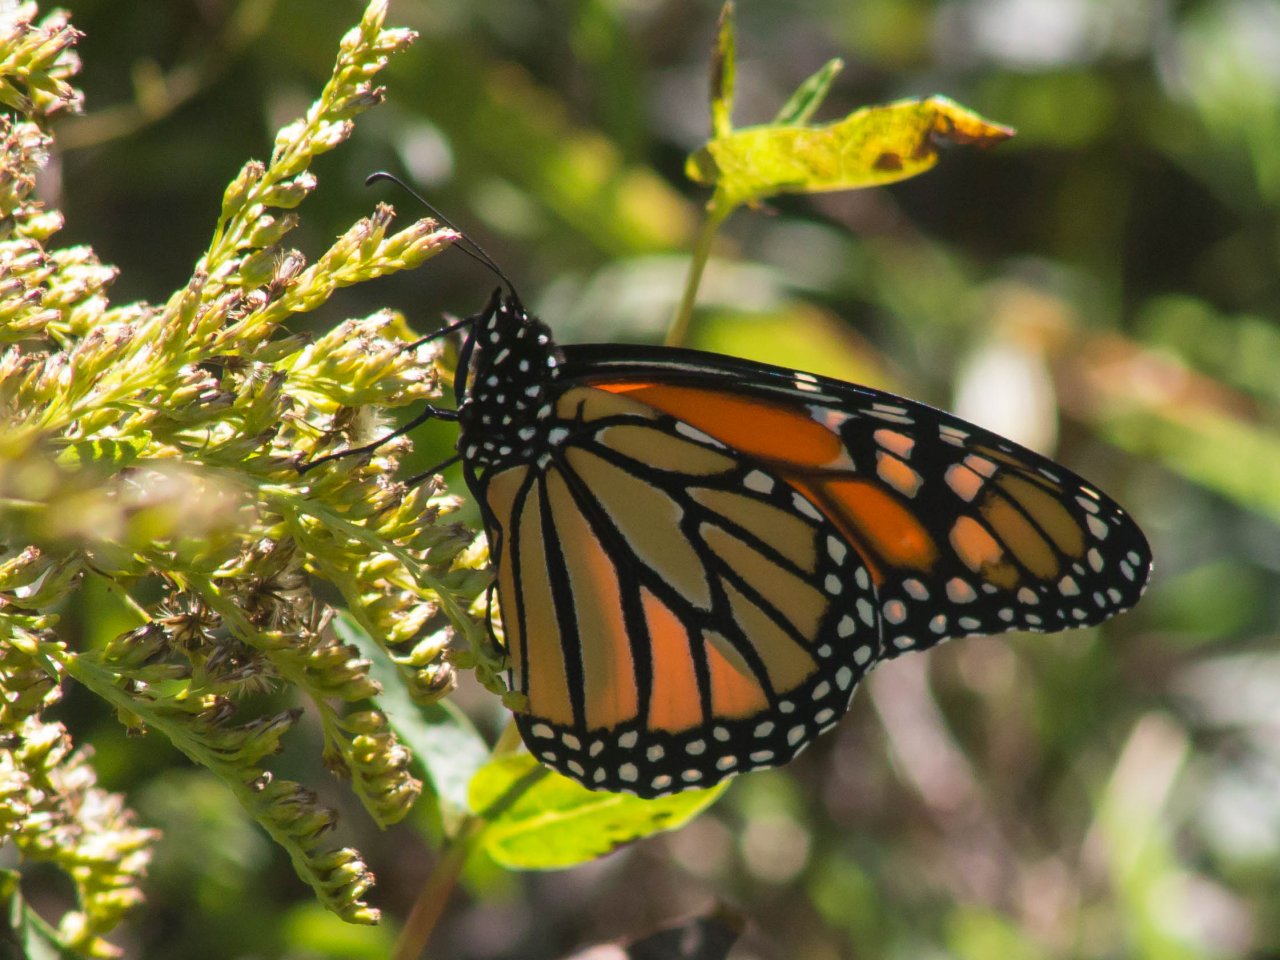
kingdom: Animalia
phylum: Arthropoda
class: Insecta
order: Lepidoptera
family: Nymphalidae
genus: Danaus
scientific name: Danaus plexippus
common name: Monarch
